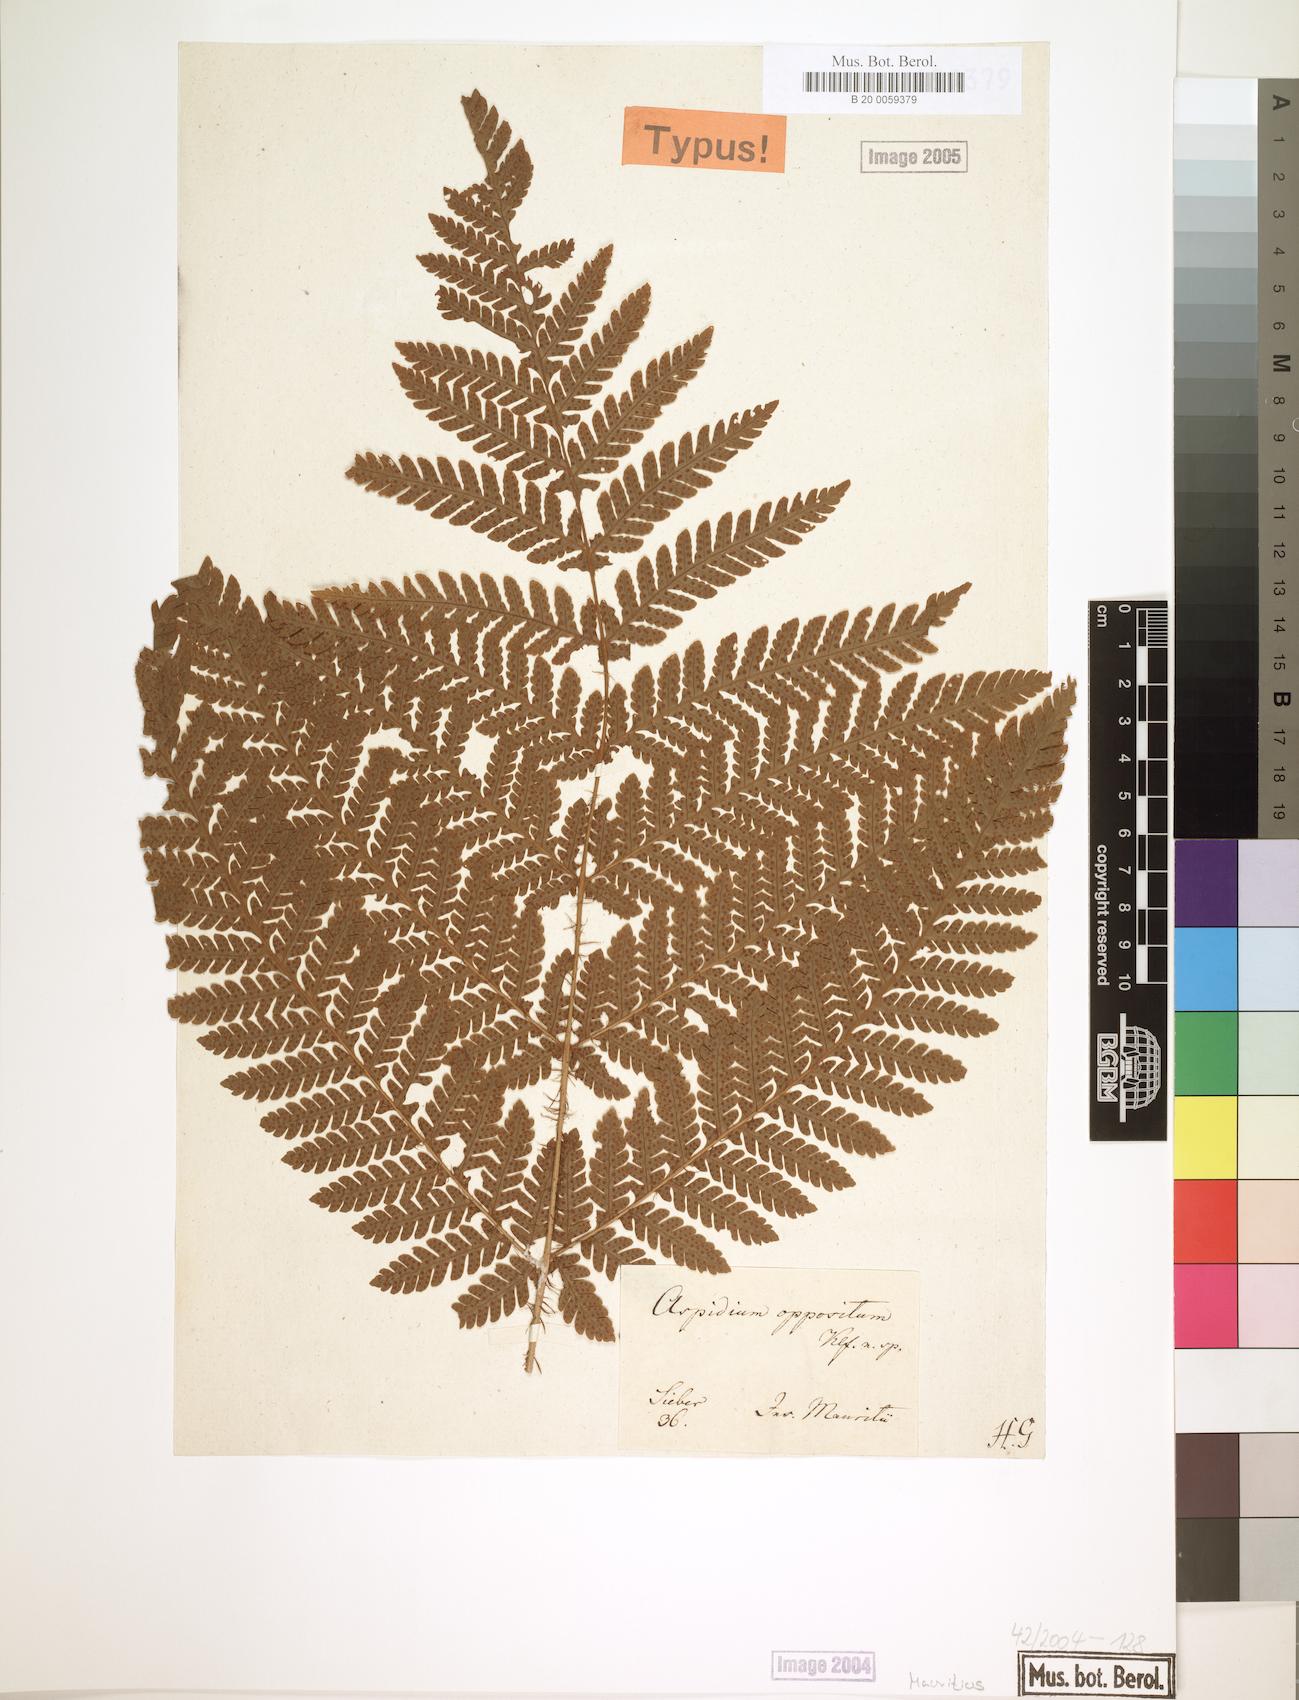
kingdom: Plantae
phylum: Tracheophyta
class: Polypodiopsida
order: Polypodiales
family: Dryopteridaceae
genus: Megalastrum
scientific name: Megalastrum oppositum
